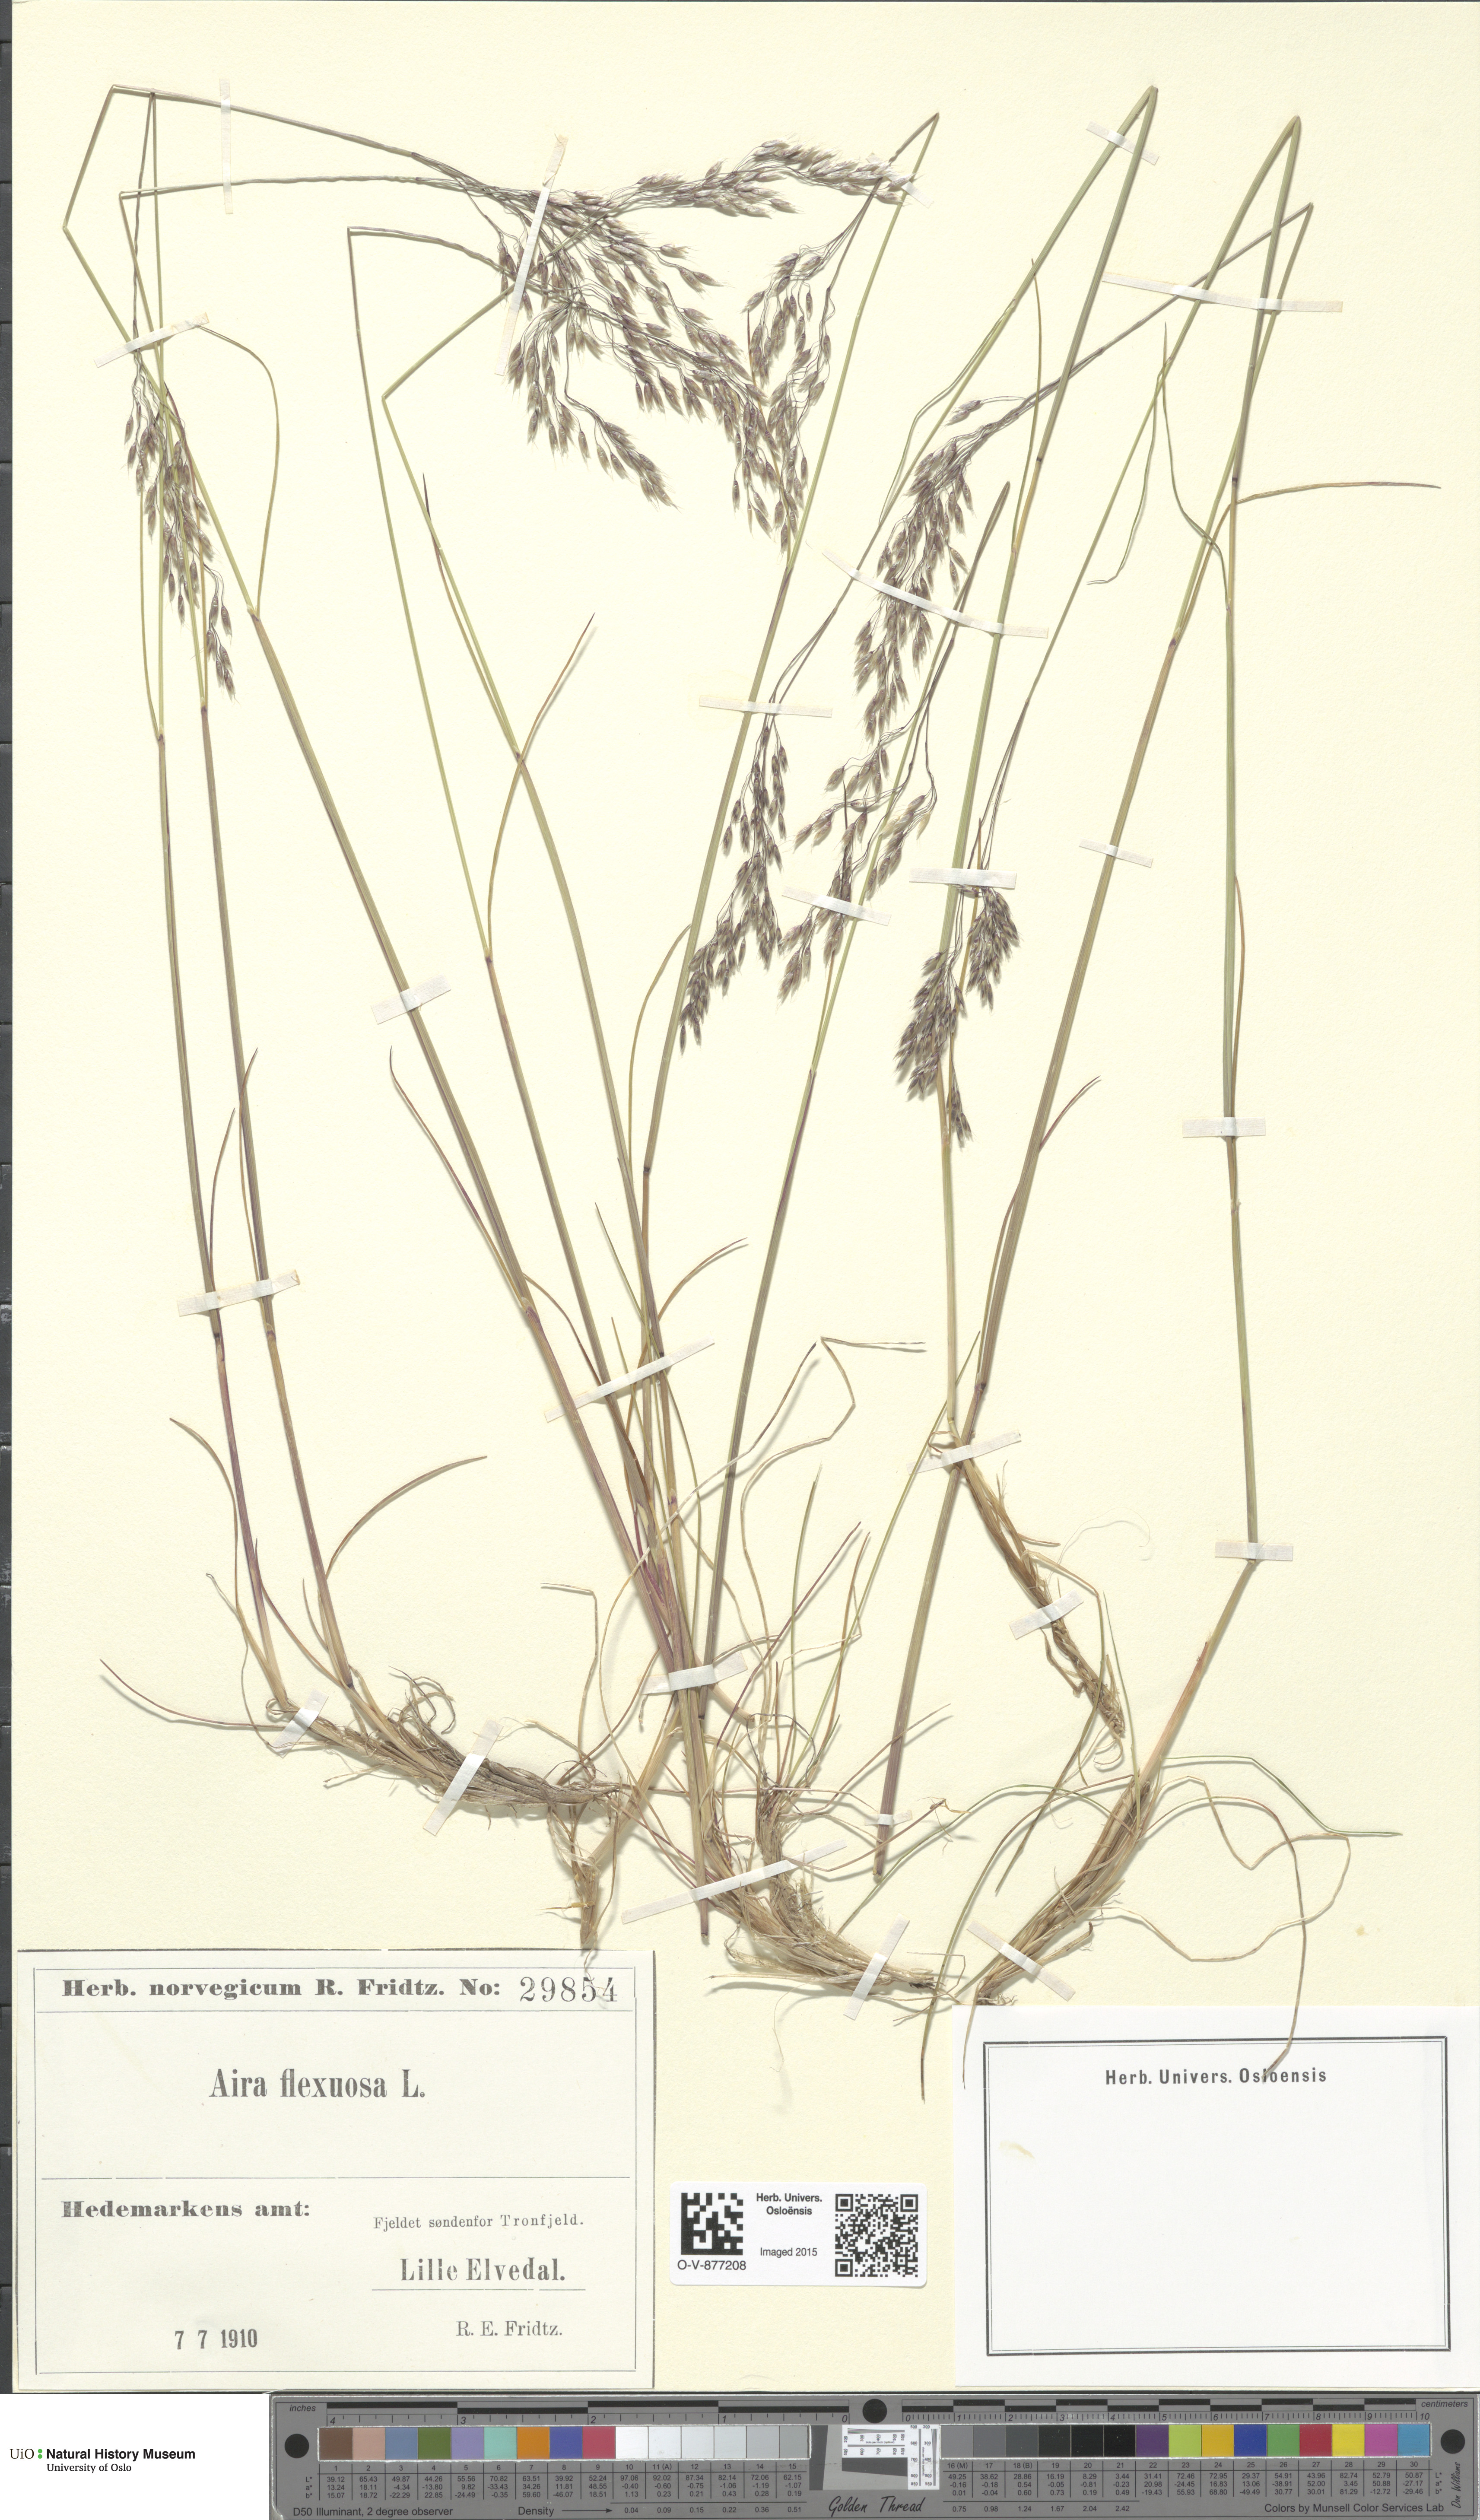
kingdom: Plantae
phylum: Tracheophyta
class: Liliopsida
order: Poales
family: Poaceae
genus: Avenella
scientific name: Avenella flexuosa
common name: Wavy hairgrass
